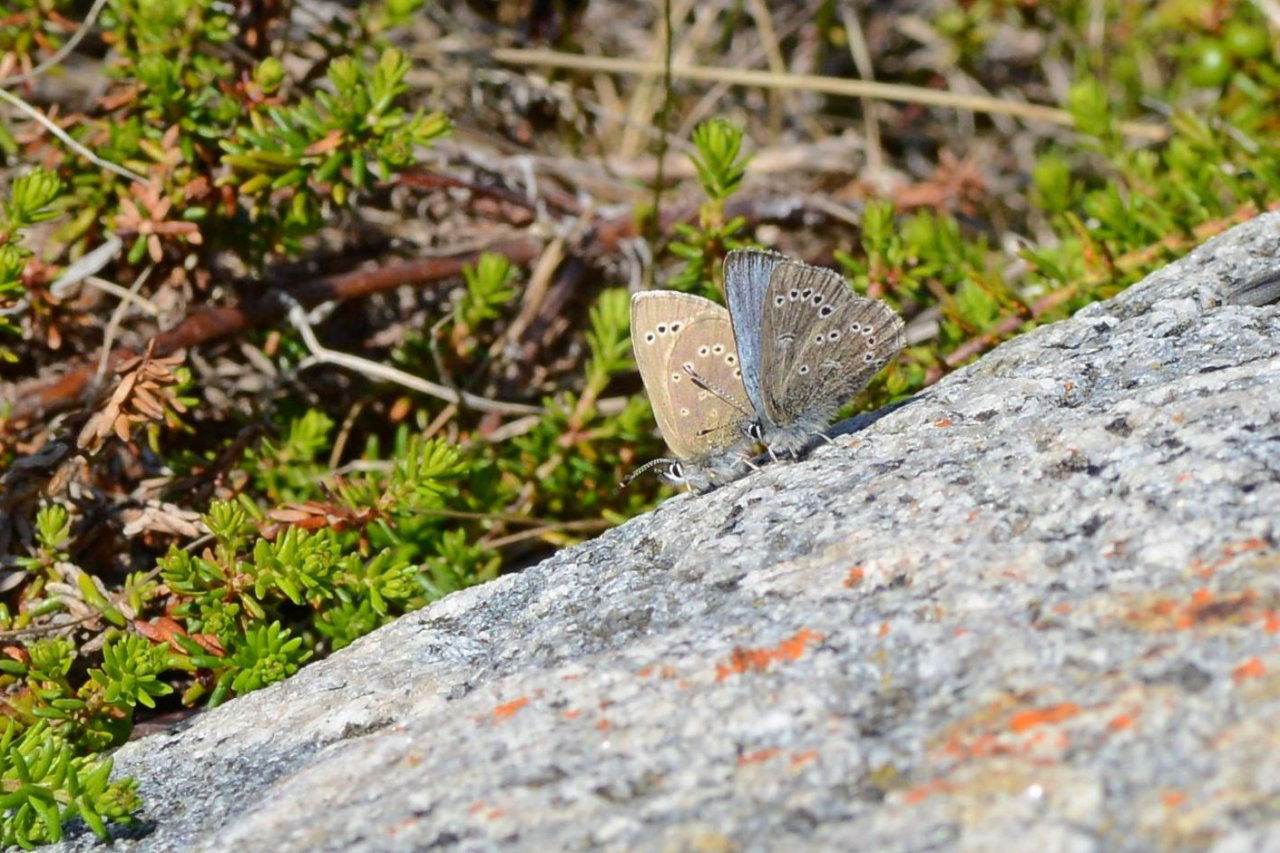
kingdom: Animalia
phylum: Arthropoda
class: Insecta
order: Lepidoptera
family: Lycaenidae
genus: Glaucopsyche
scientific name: Glaucopsyche lygdamus
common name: Silvery Blue
